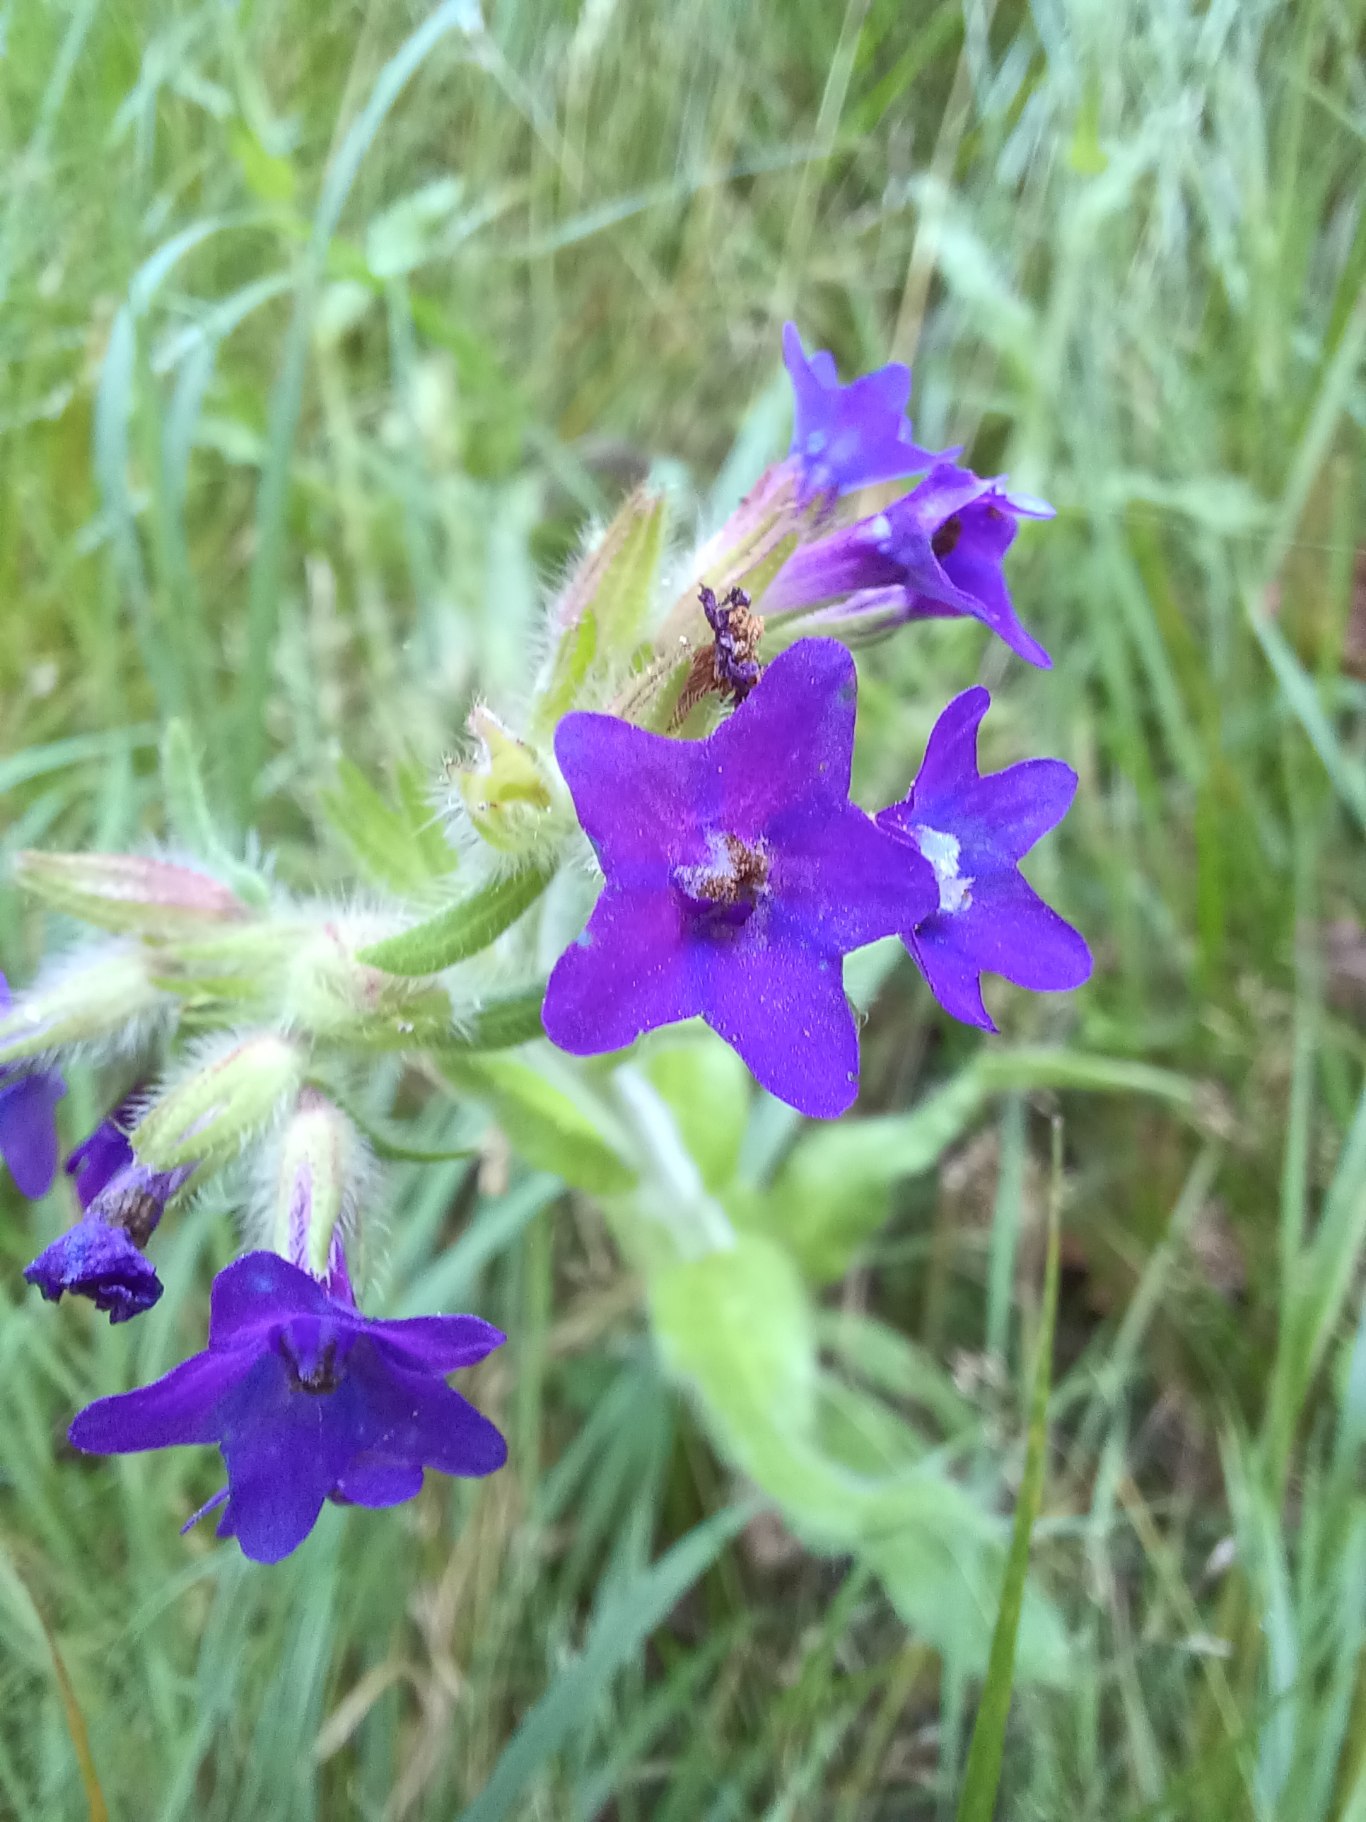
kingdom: Plantae
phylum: Tracheophyta
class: Magnoliopsida
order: Boraginales
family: Boraginaceae
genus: Anchusa
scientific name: Anchusa officinalis
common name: Læge-oksetunge
